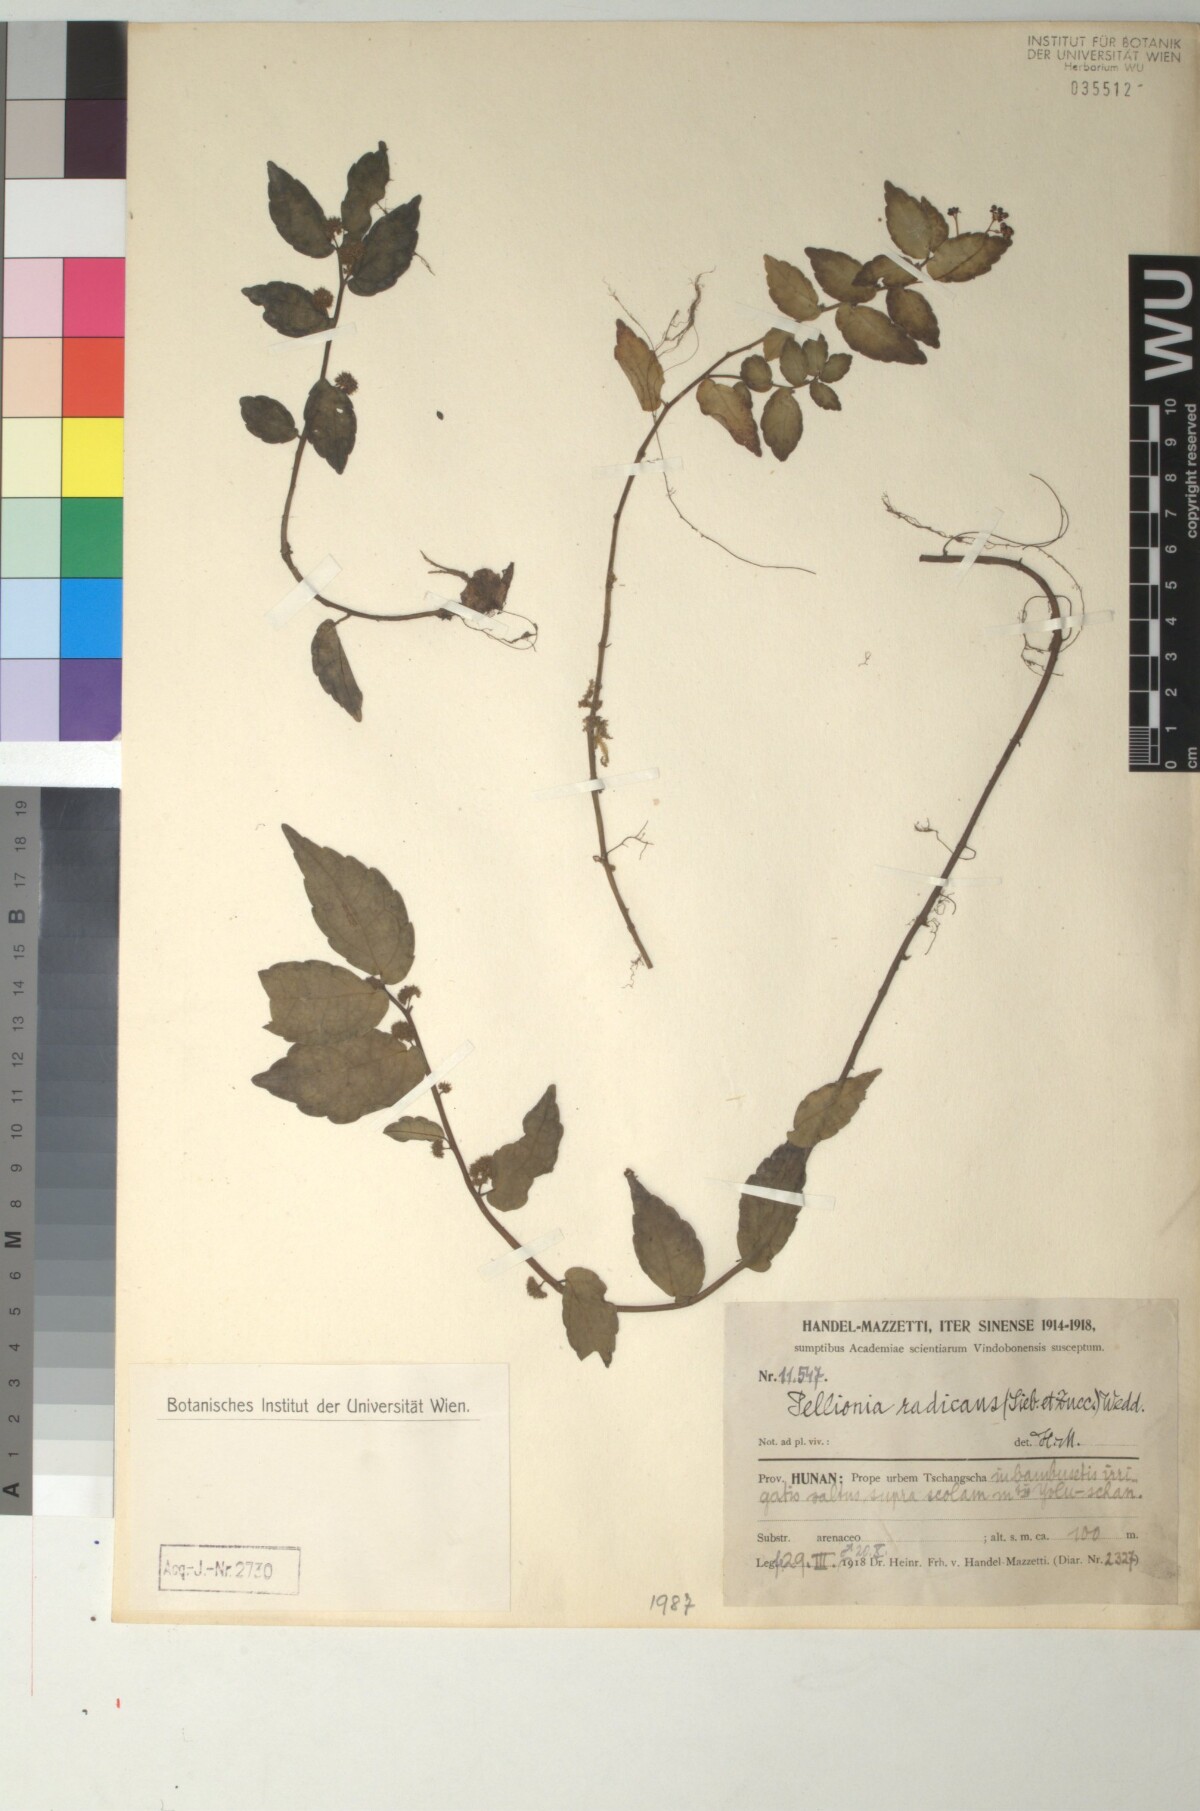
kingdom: Plantae
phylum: Tracheophyta
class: Magnoliopsida
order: Rosales
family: Urticaceae
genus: Elatostema
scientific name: Elatostema radicans
